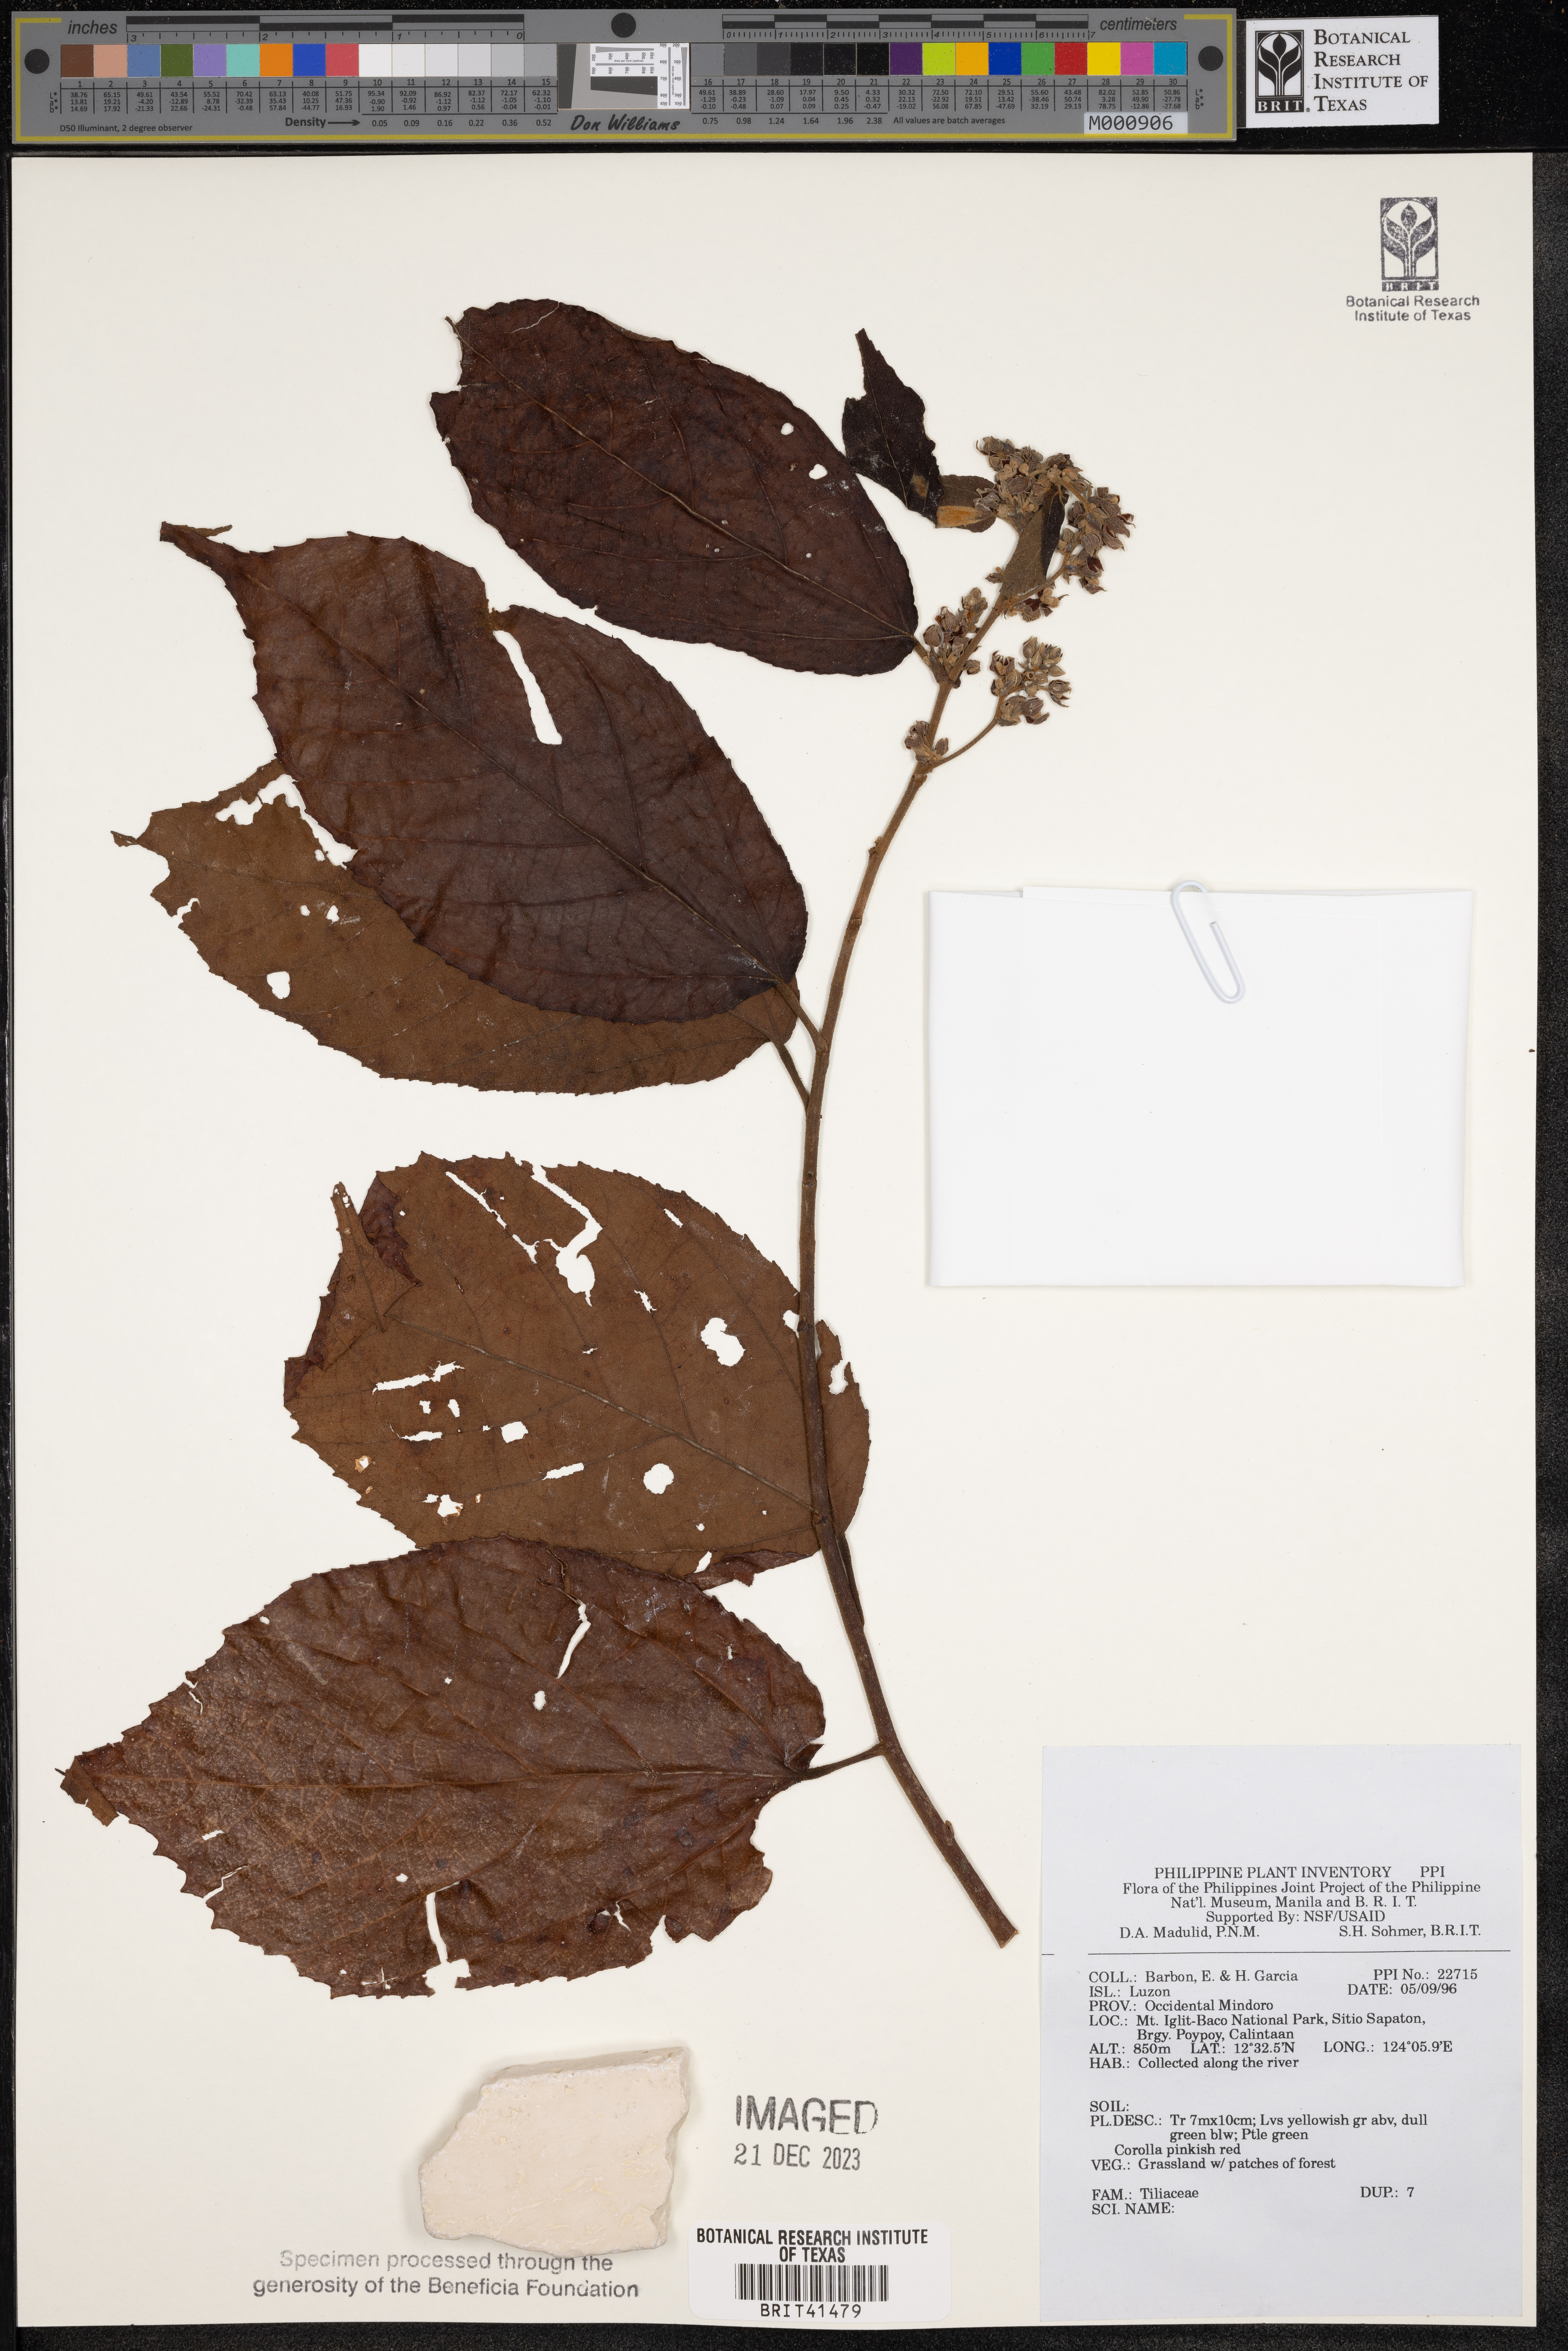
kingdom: Plantae
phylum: Tracheophyta
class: Magnoliopsida
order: Malvales
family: Tiliaceae
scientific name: Tiliaceae
